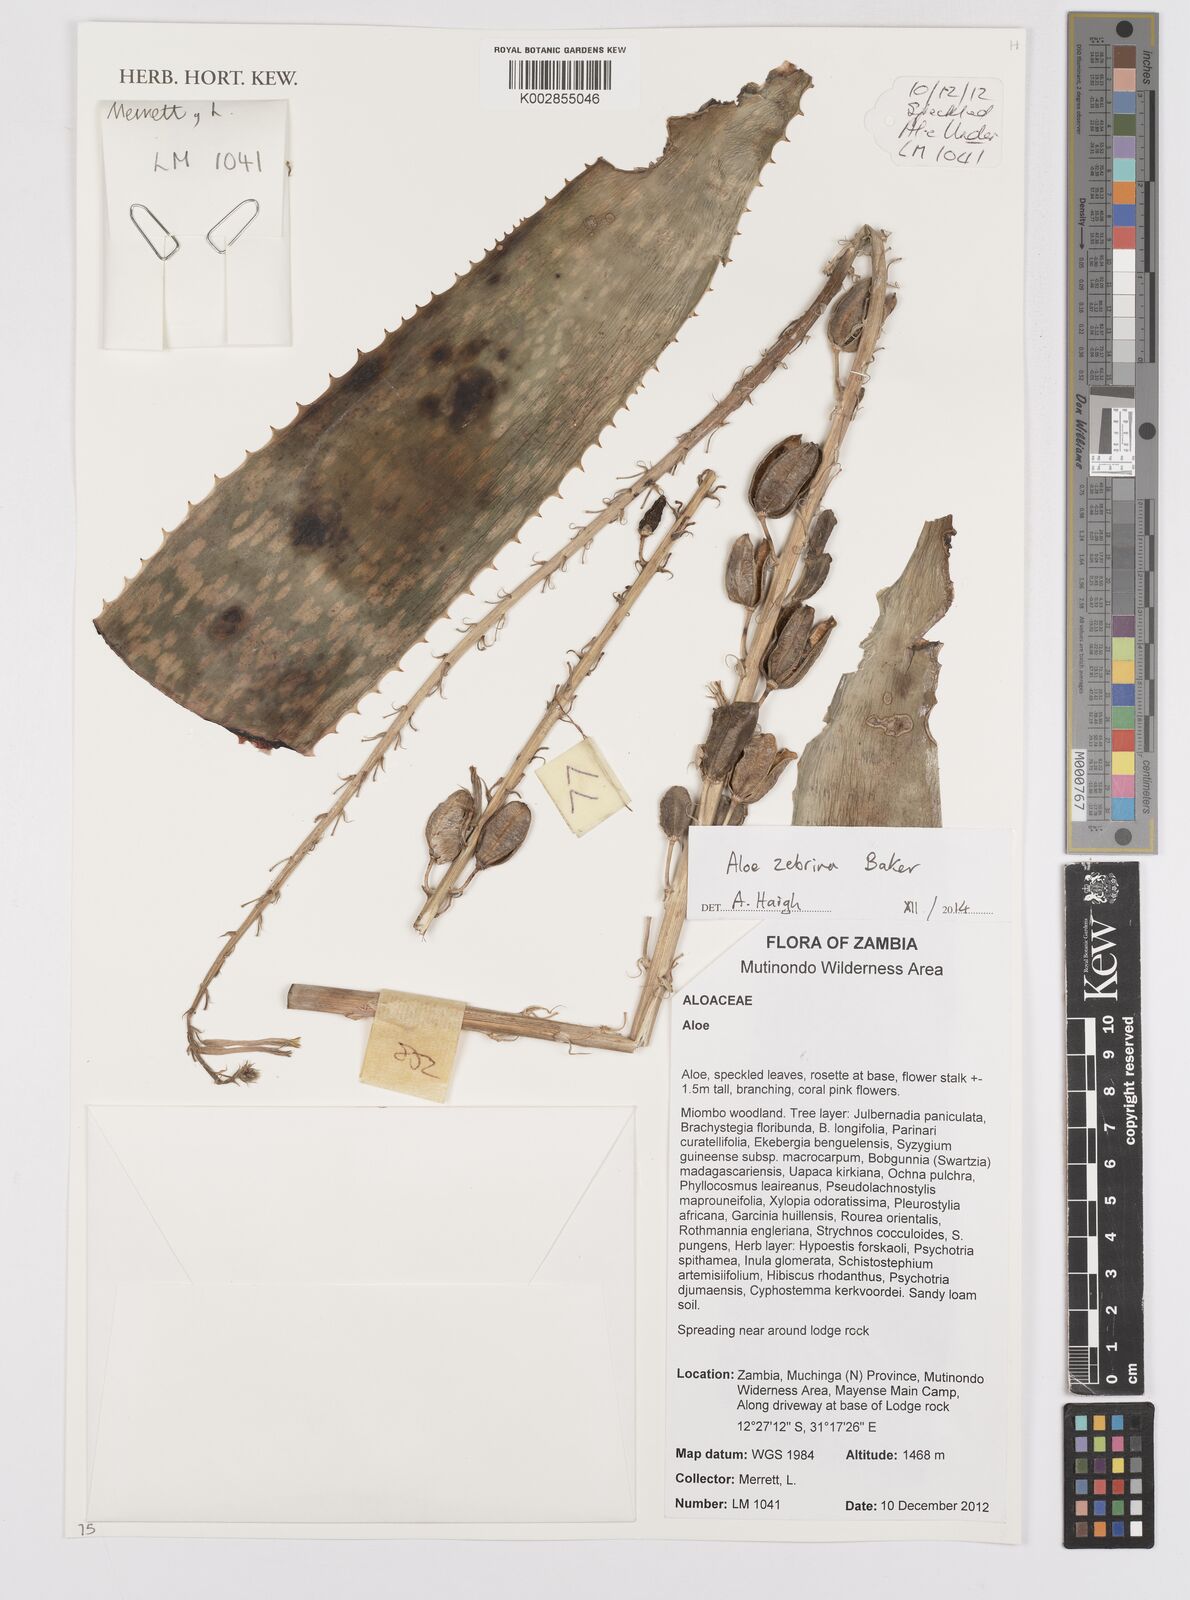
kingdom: Plantae
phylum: Tracheophyta
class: Liliopsida
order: Asparagales
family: Asphodelaceae
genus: Aloe
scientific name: Aloe zebrina
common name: Zebra-leaf aloe
